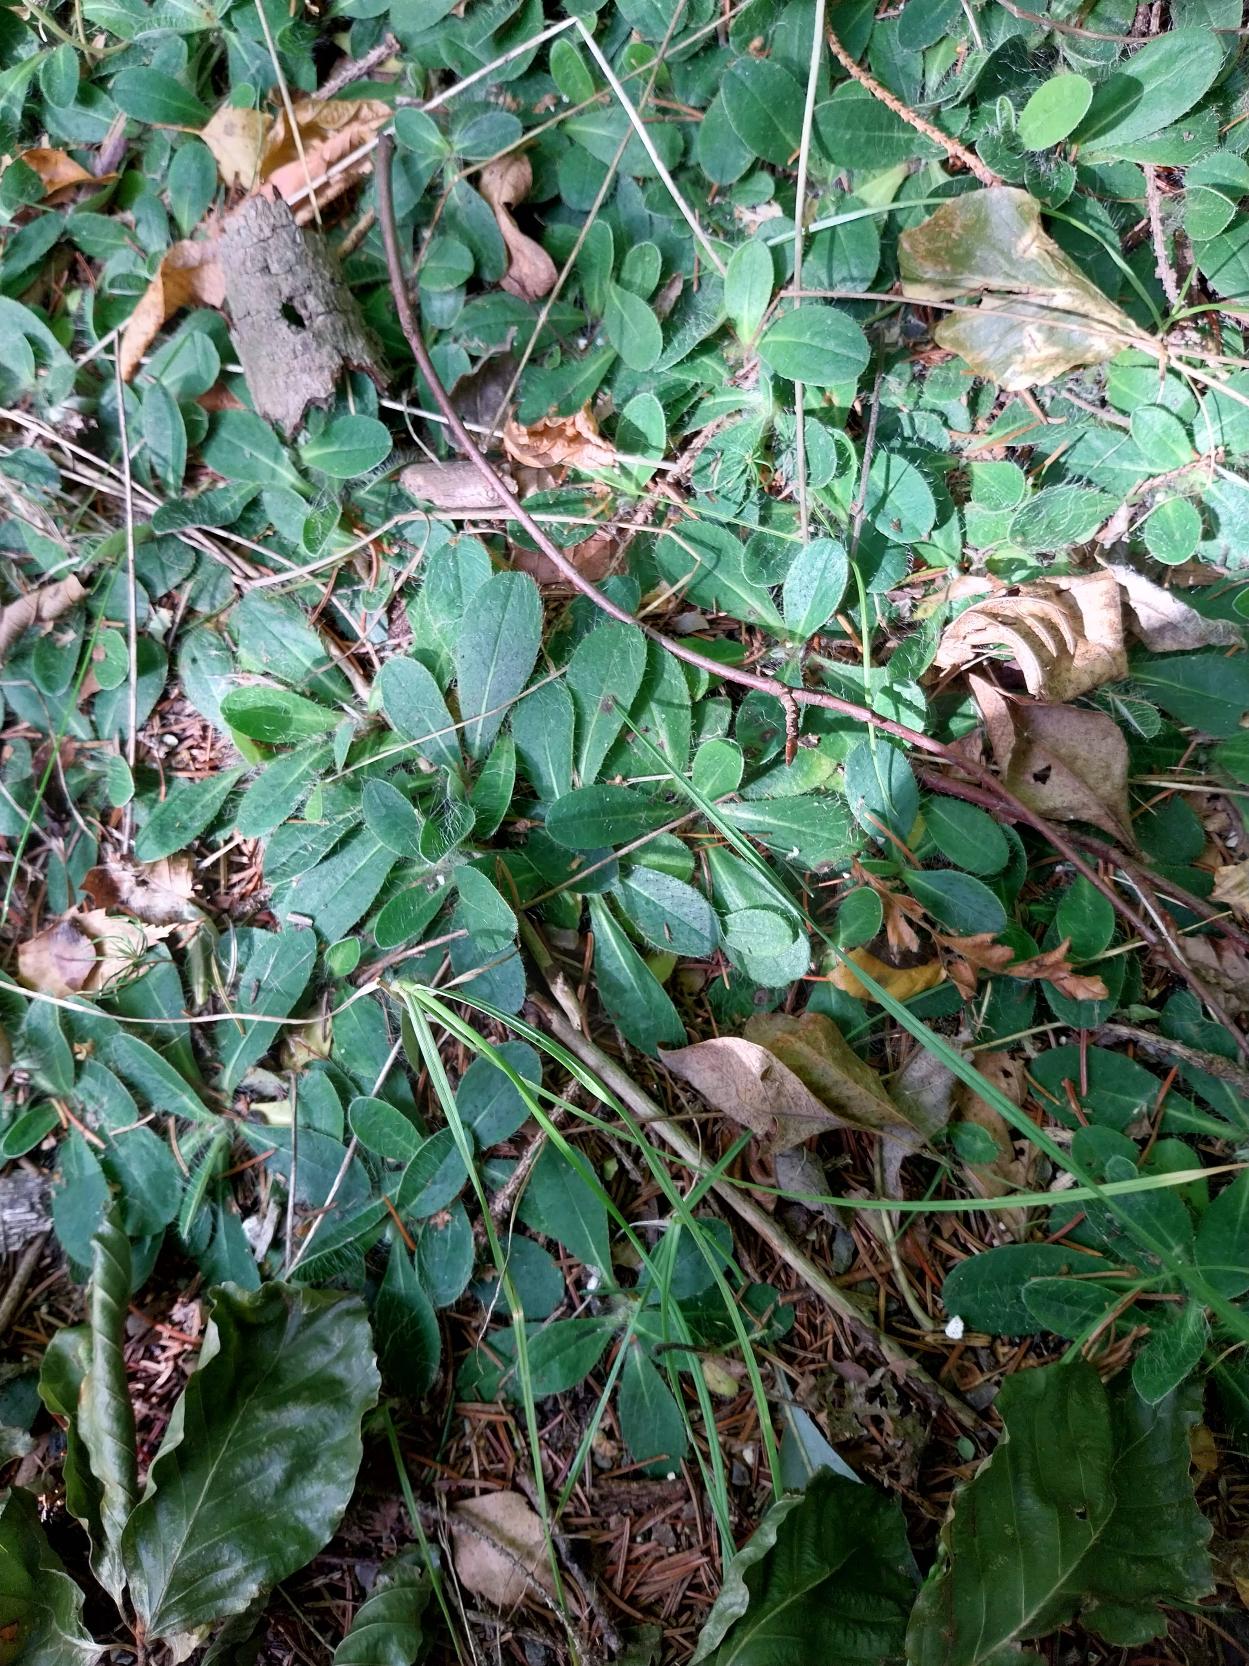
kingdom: Plantae
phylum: Tracheophyta
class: Magnoliopsida
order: Asterales
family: Asteraceae
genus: Pilosella
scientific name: Pilosella officinarum
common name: Håret høgeurt
